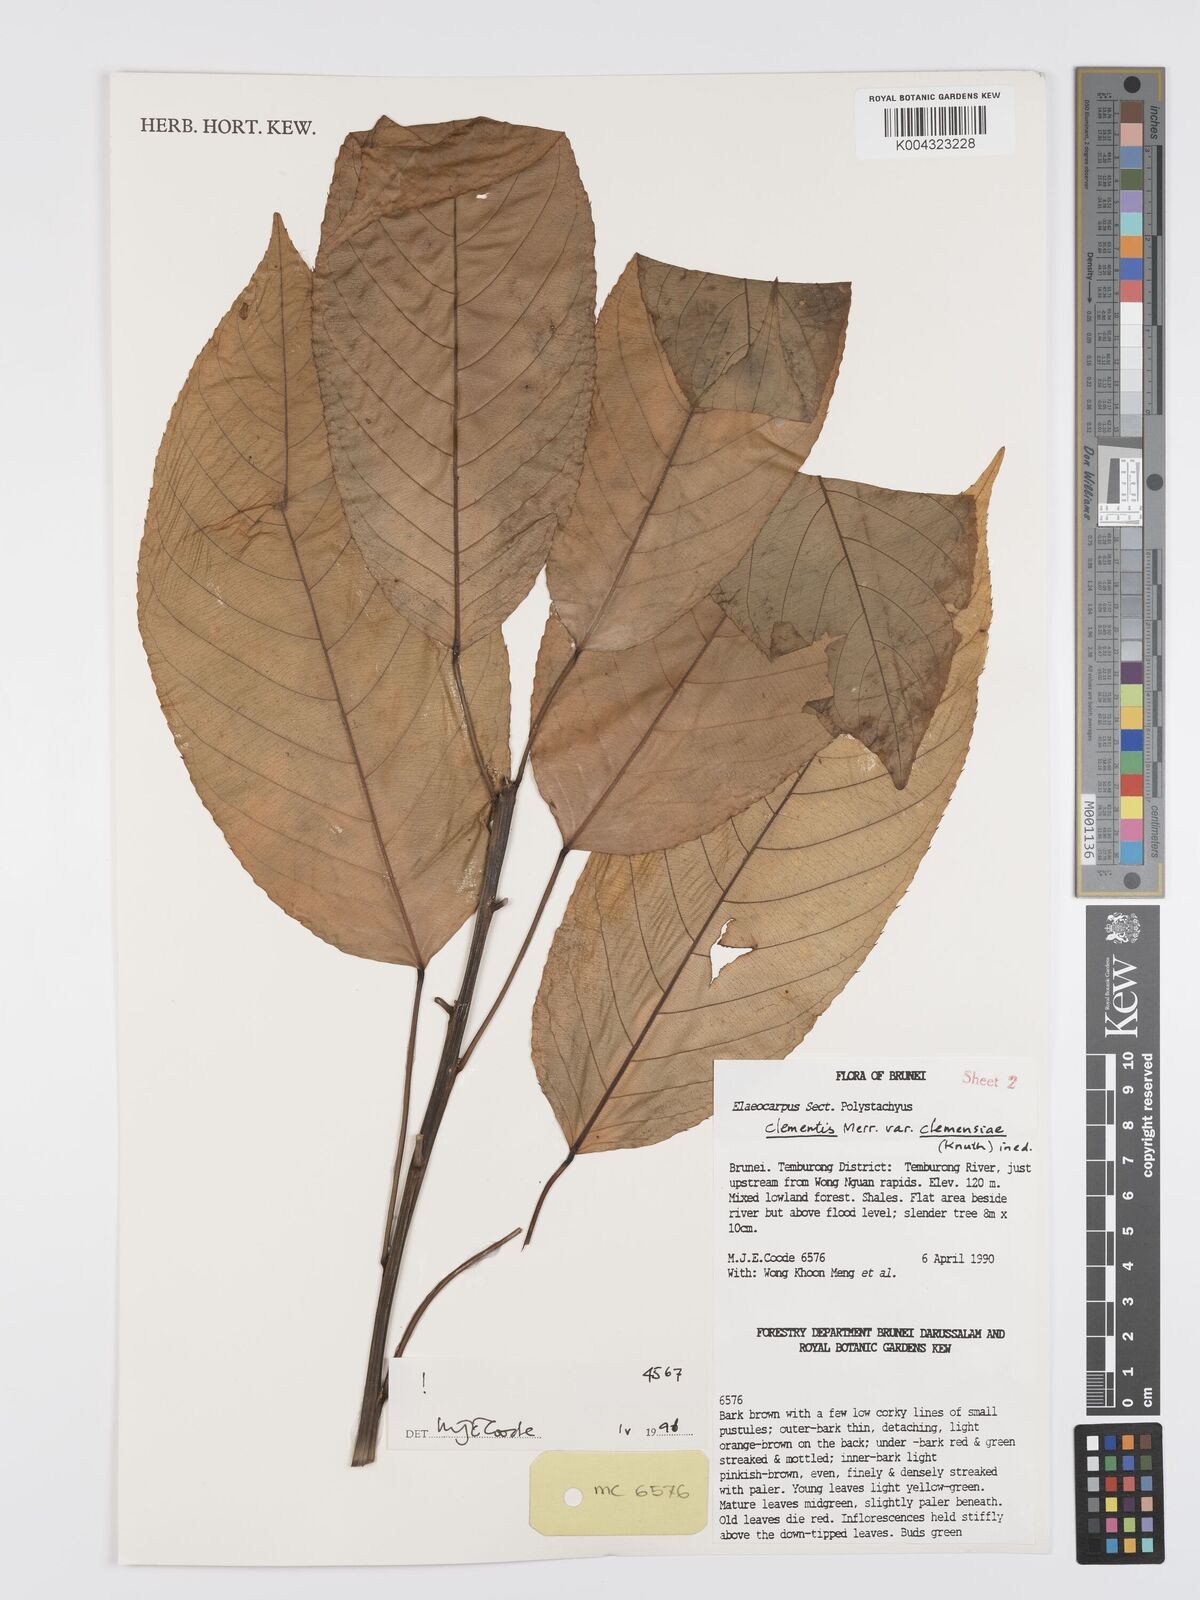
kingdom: Plantae
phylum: Tracheophyta
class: Magnoliopsida
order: Oxalidales
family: Elaeocarpaceae
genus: Elaeocarpus
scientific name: Elaeocarpus clementis
